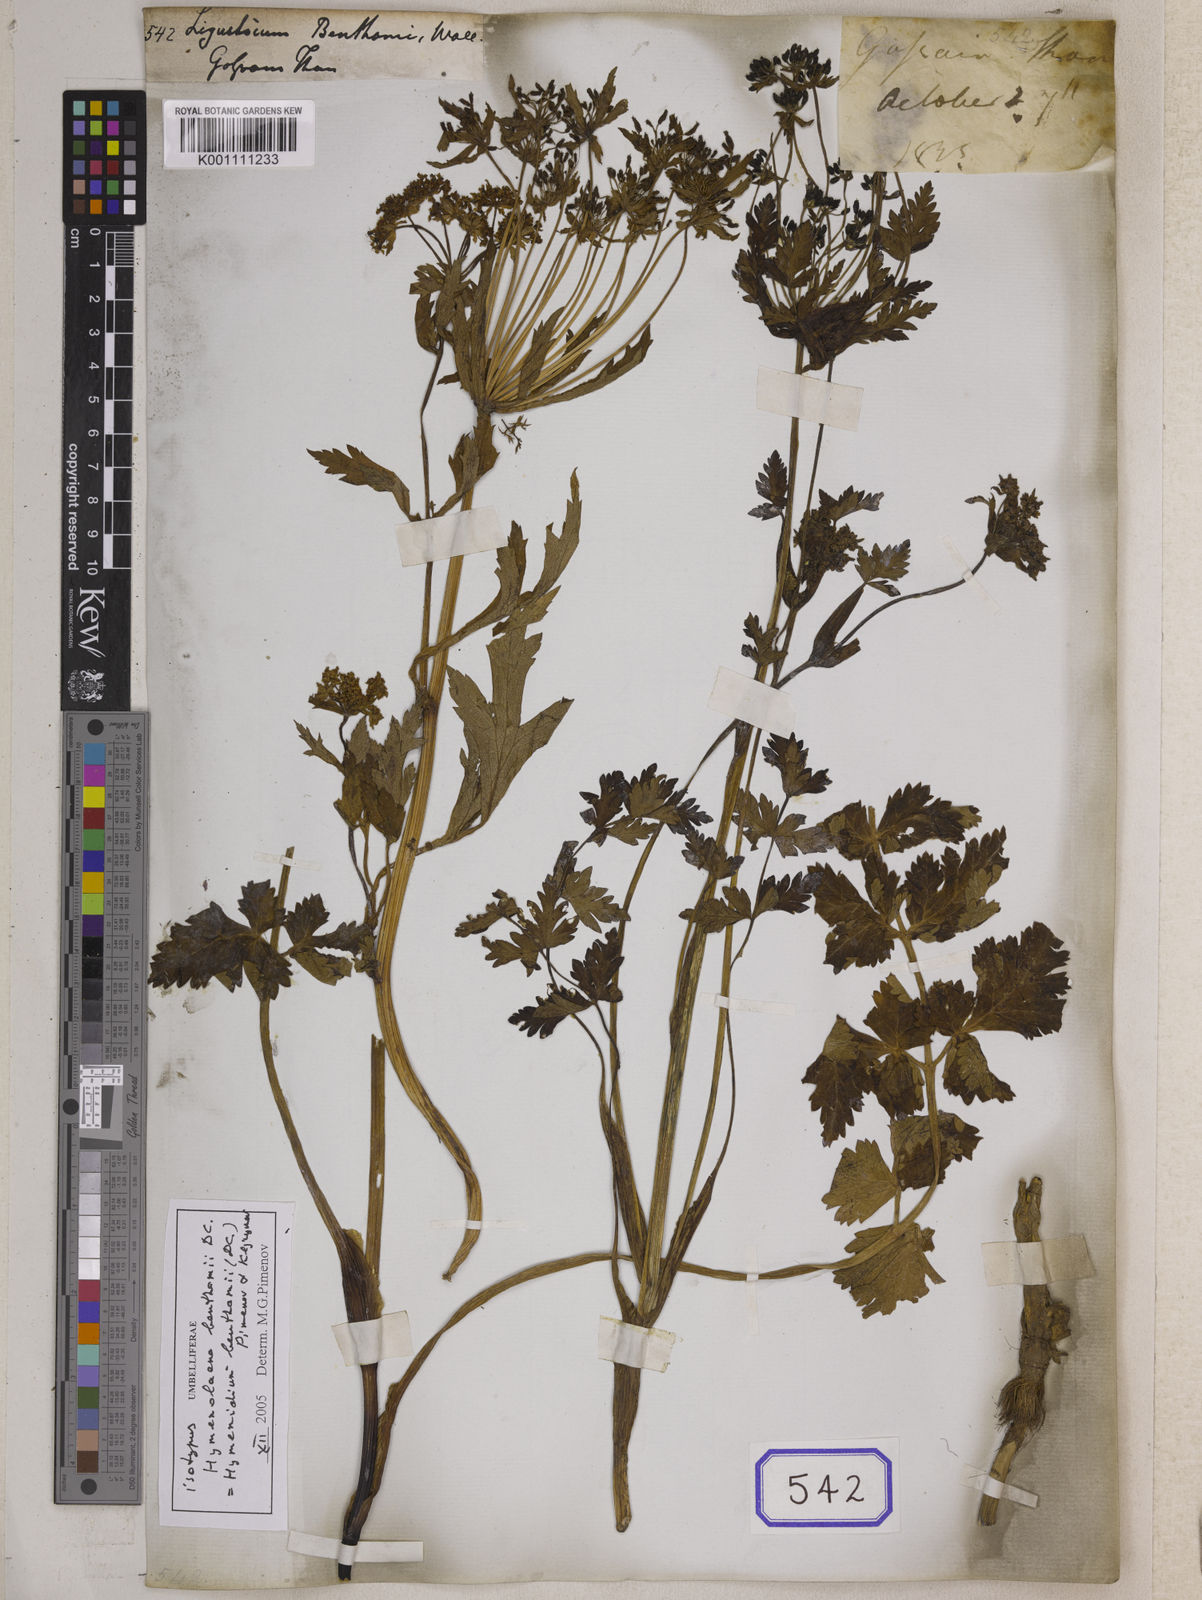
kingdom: Plantae
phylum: Tracheophyta
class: Magnoliopsida
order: Apiales
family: Apiaceae
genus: Hymenidium
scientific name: Hymenidium benthamii
